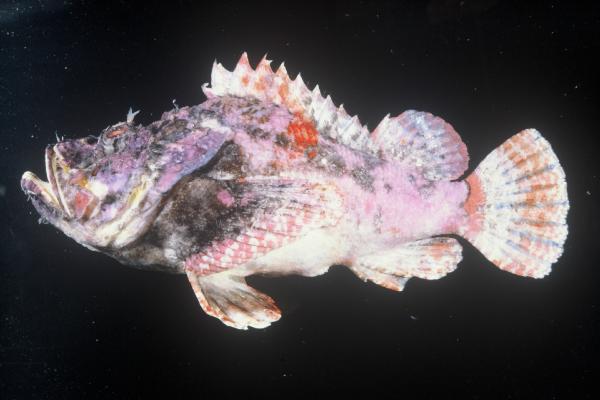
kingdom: Animalia
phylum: Chordata
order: Scorpaeniformes
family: Scorpaenidae
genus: Scorpaenopsis
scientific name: Scorpaenopsis diabolus
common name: False stonefish
